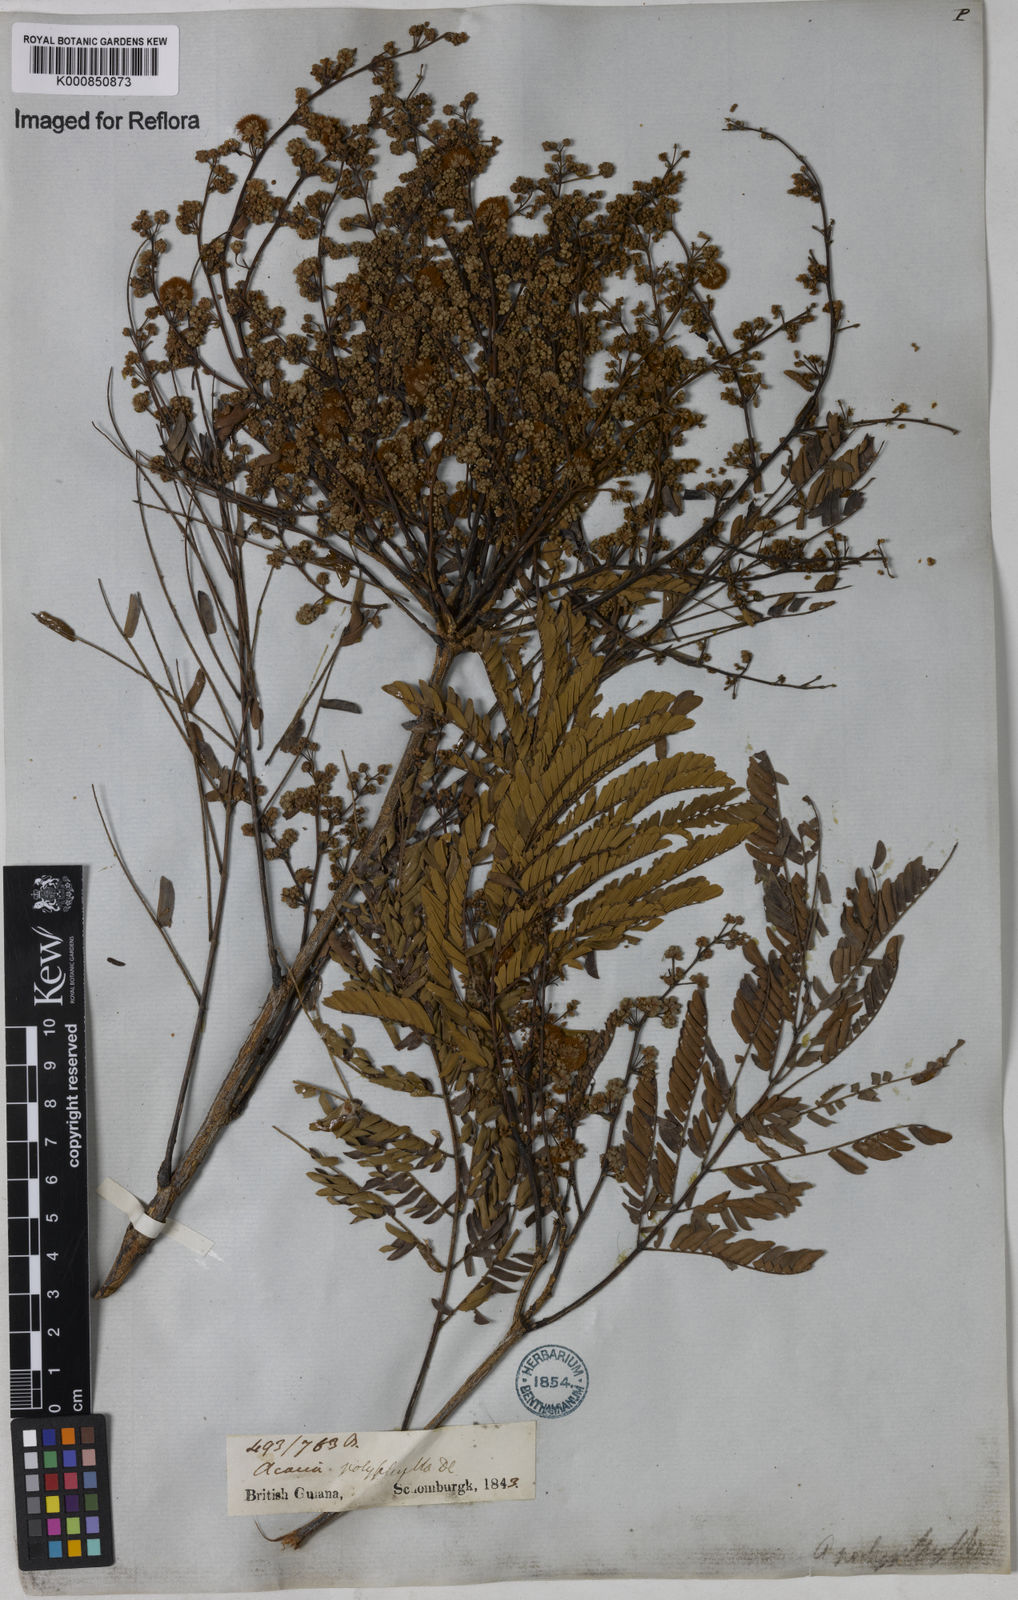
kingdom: Plantae
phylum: Tracheophyta
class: Magnoliopsida
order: Fabales
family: Fabaceae
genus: Senegalia
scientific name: Senegalia polyphylla
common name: White-tamarind
